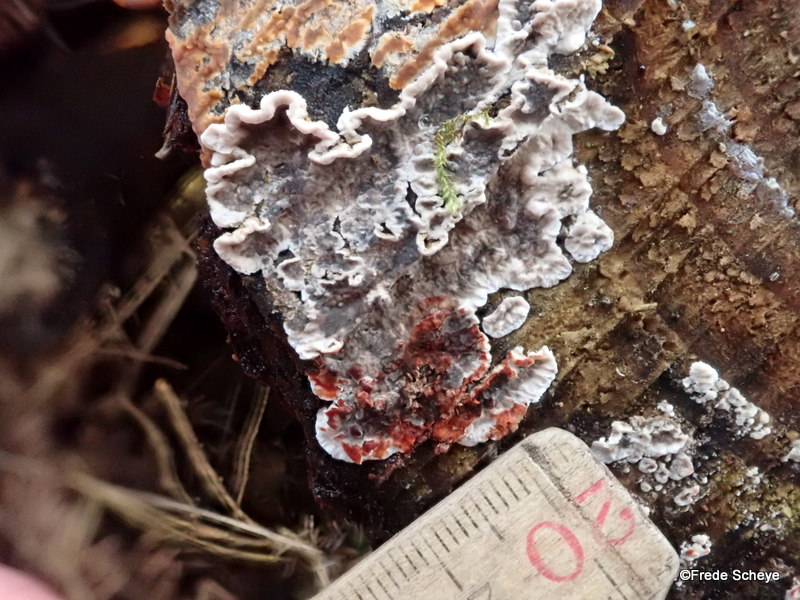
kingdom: Fungi
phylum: Basidiomycota
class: Agaricomycetes
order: Russulales
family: Stereaceae
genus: Stereum
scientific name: Stereum sanguinolentum
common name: blødende lædersvamp
